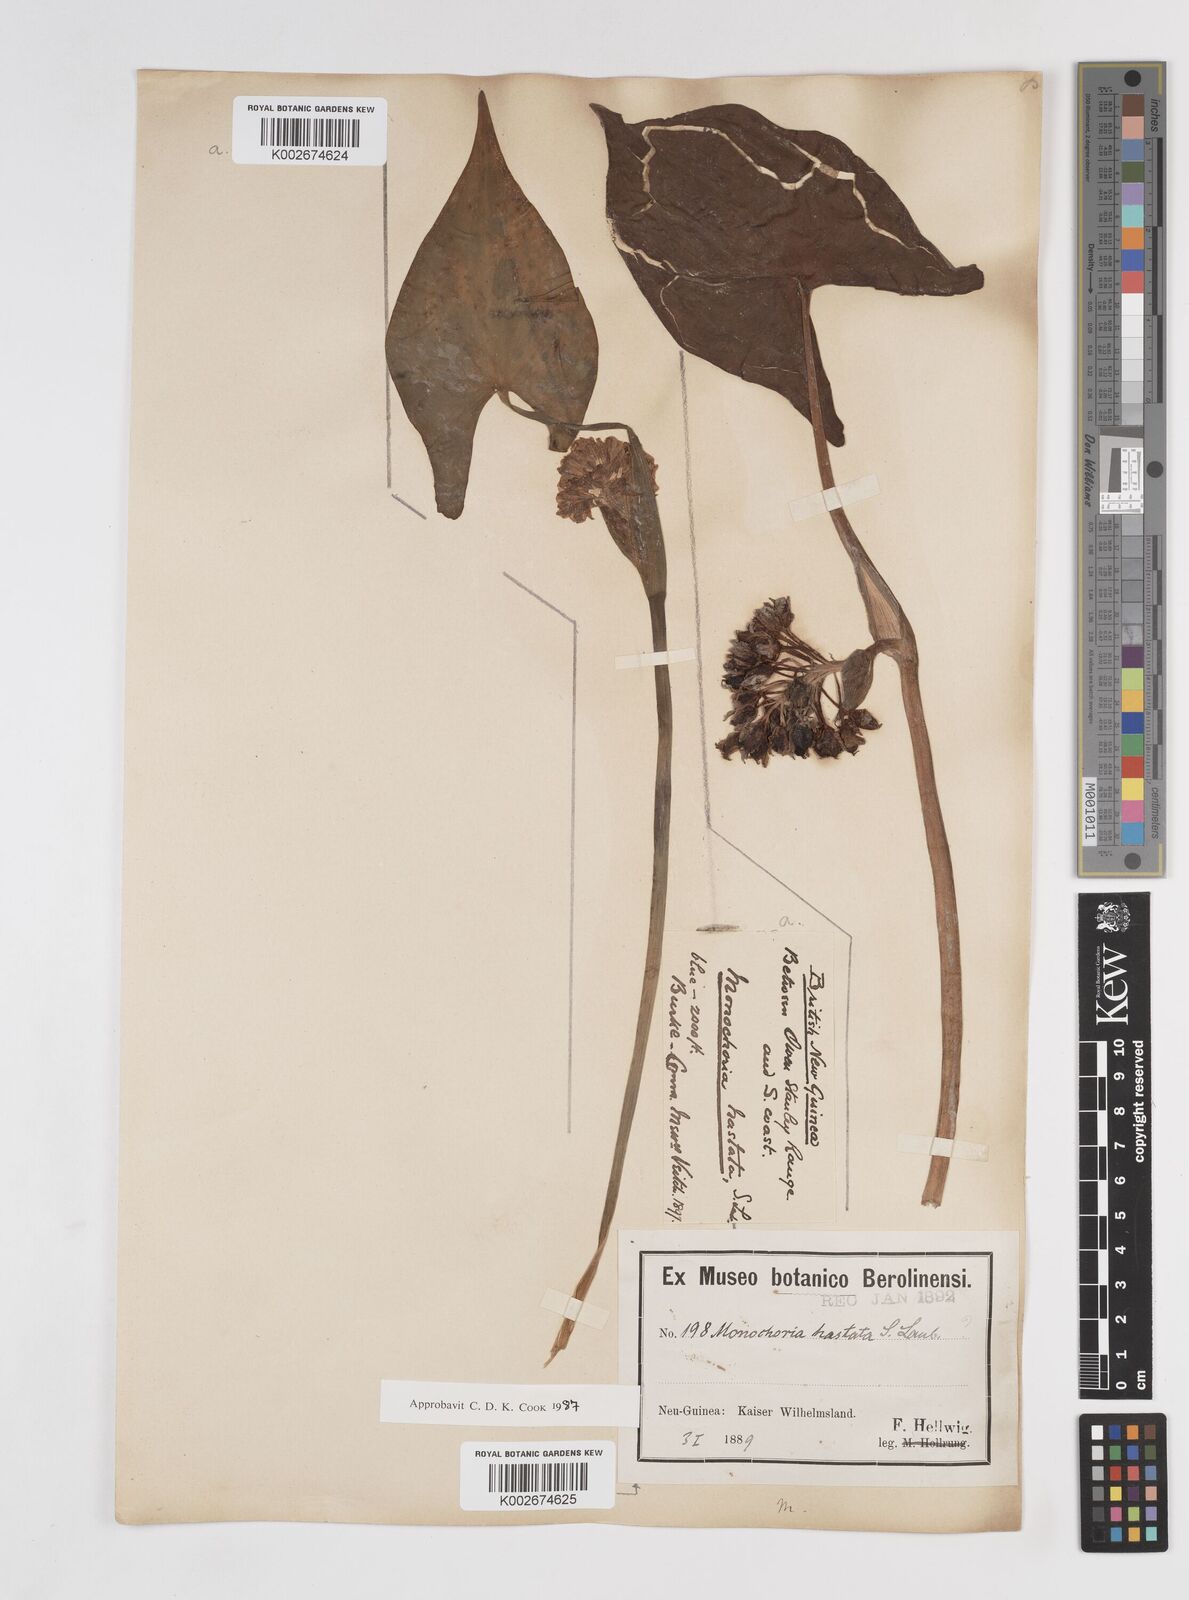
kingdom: Plantae
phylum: Tracheophyta
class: Liliopsida
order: Commelinales
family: Pontederiaceae
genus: Pontederia
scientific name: Pontederia hastata
